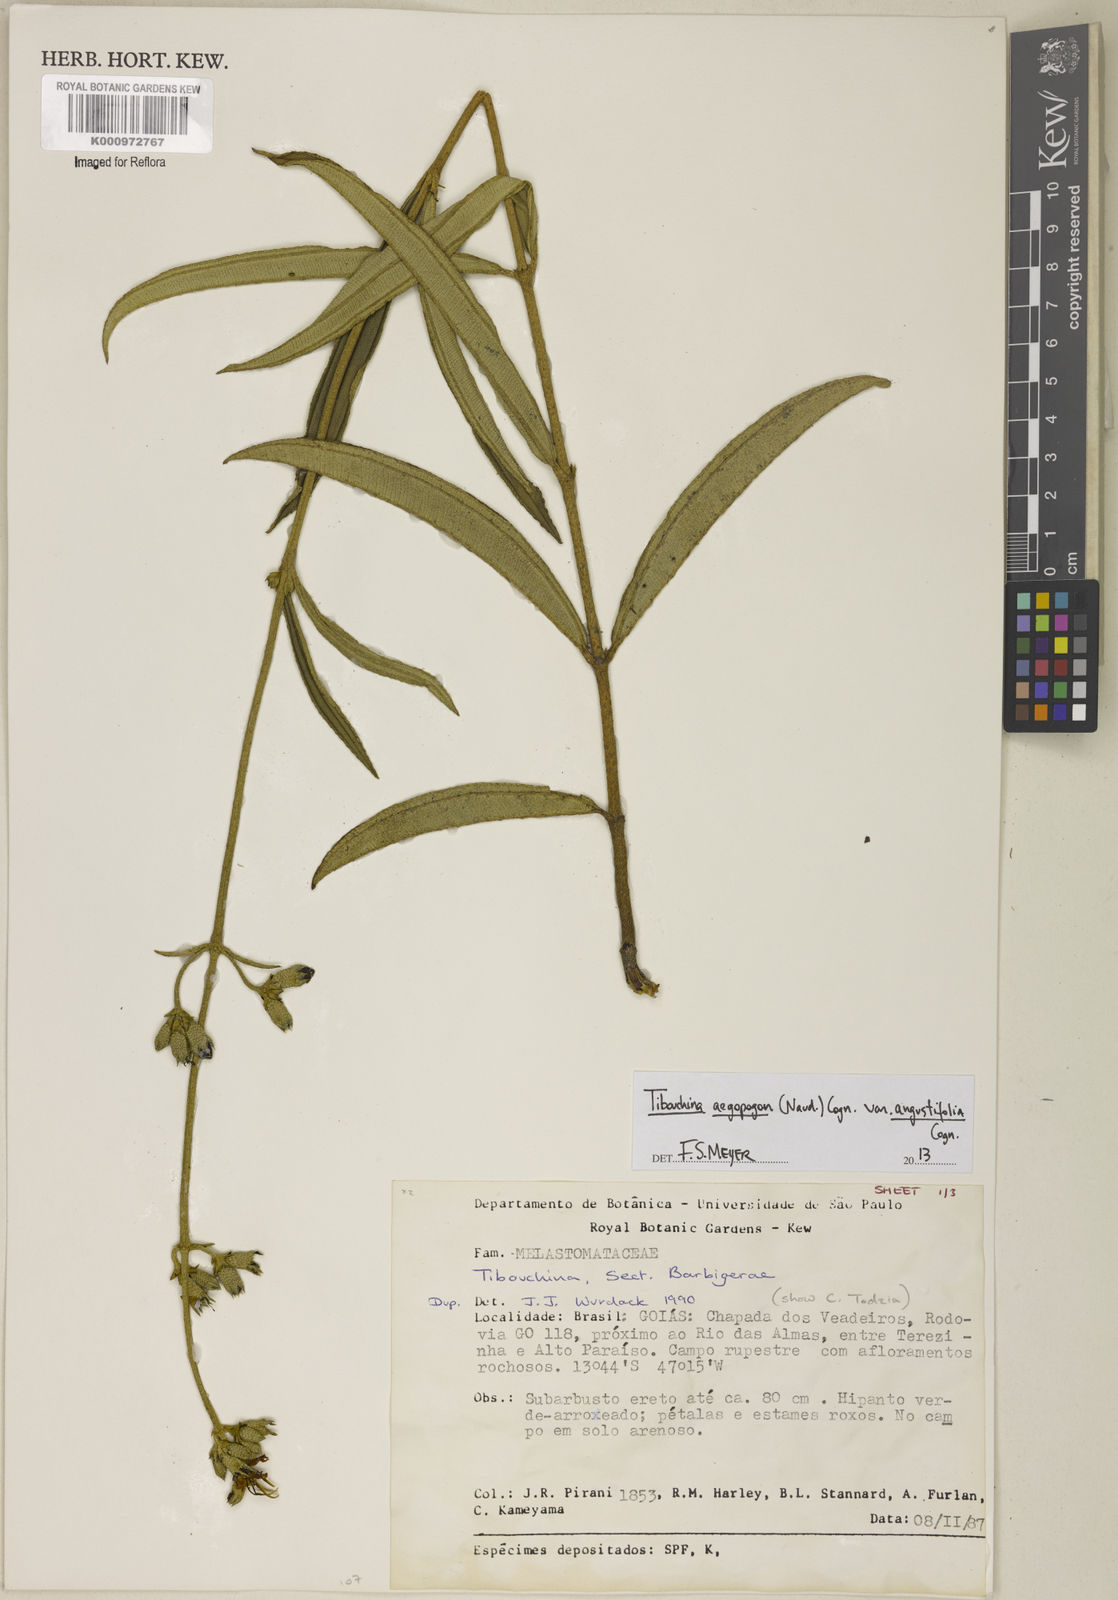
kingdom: Plantae
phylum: Tracheophyta
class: Magnoliopsida
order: Myrtales
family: Melastomataceae
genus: Pleroma
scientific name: Pleroma aegopogon
